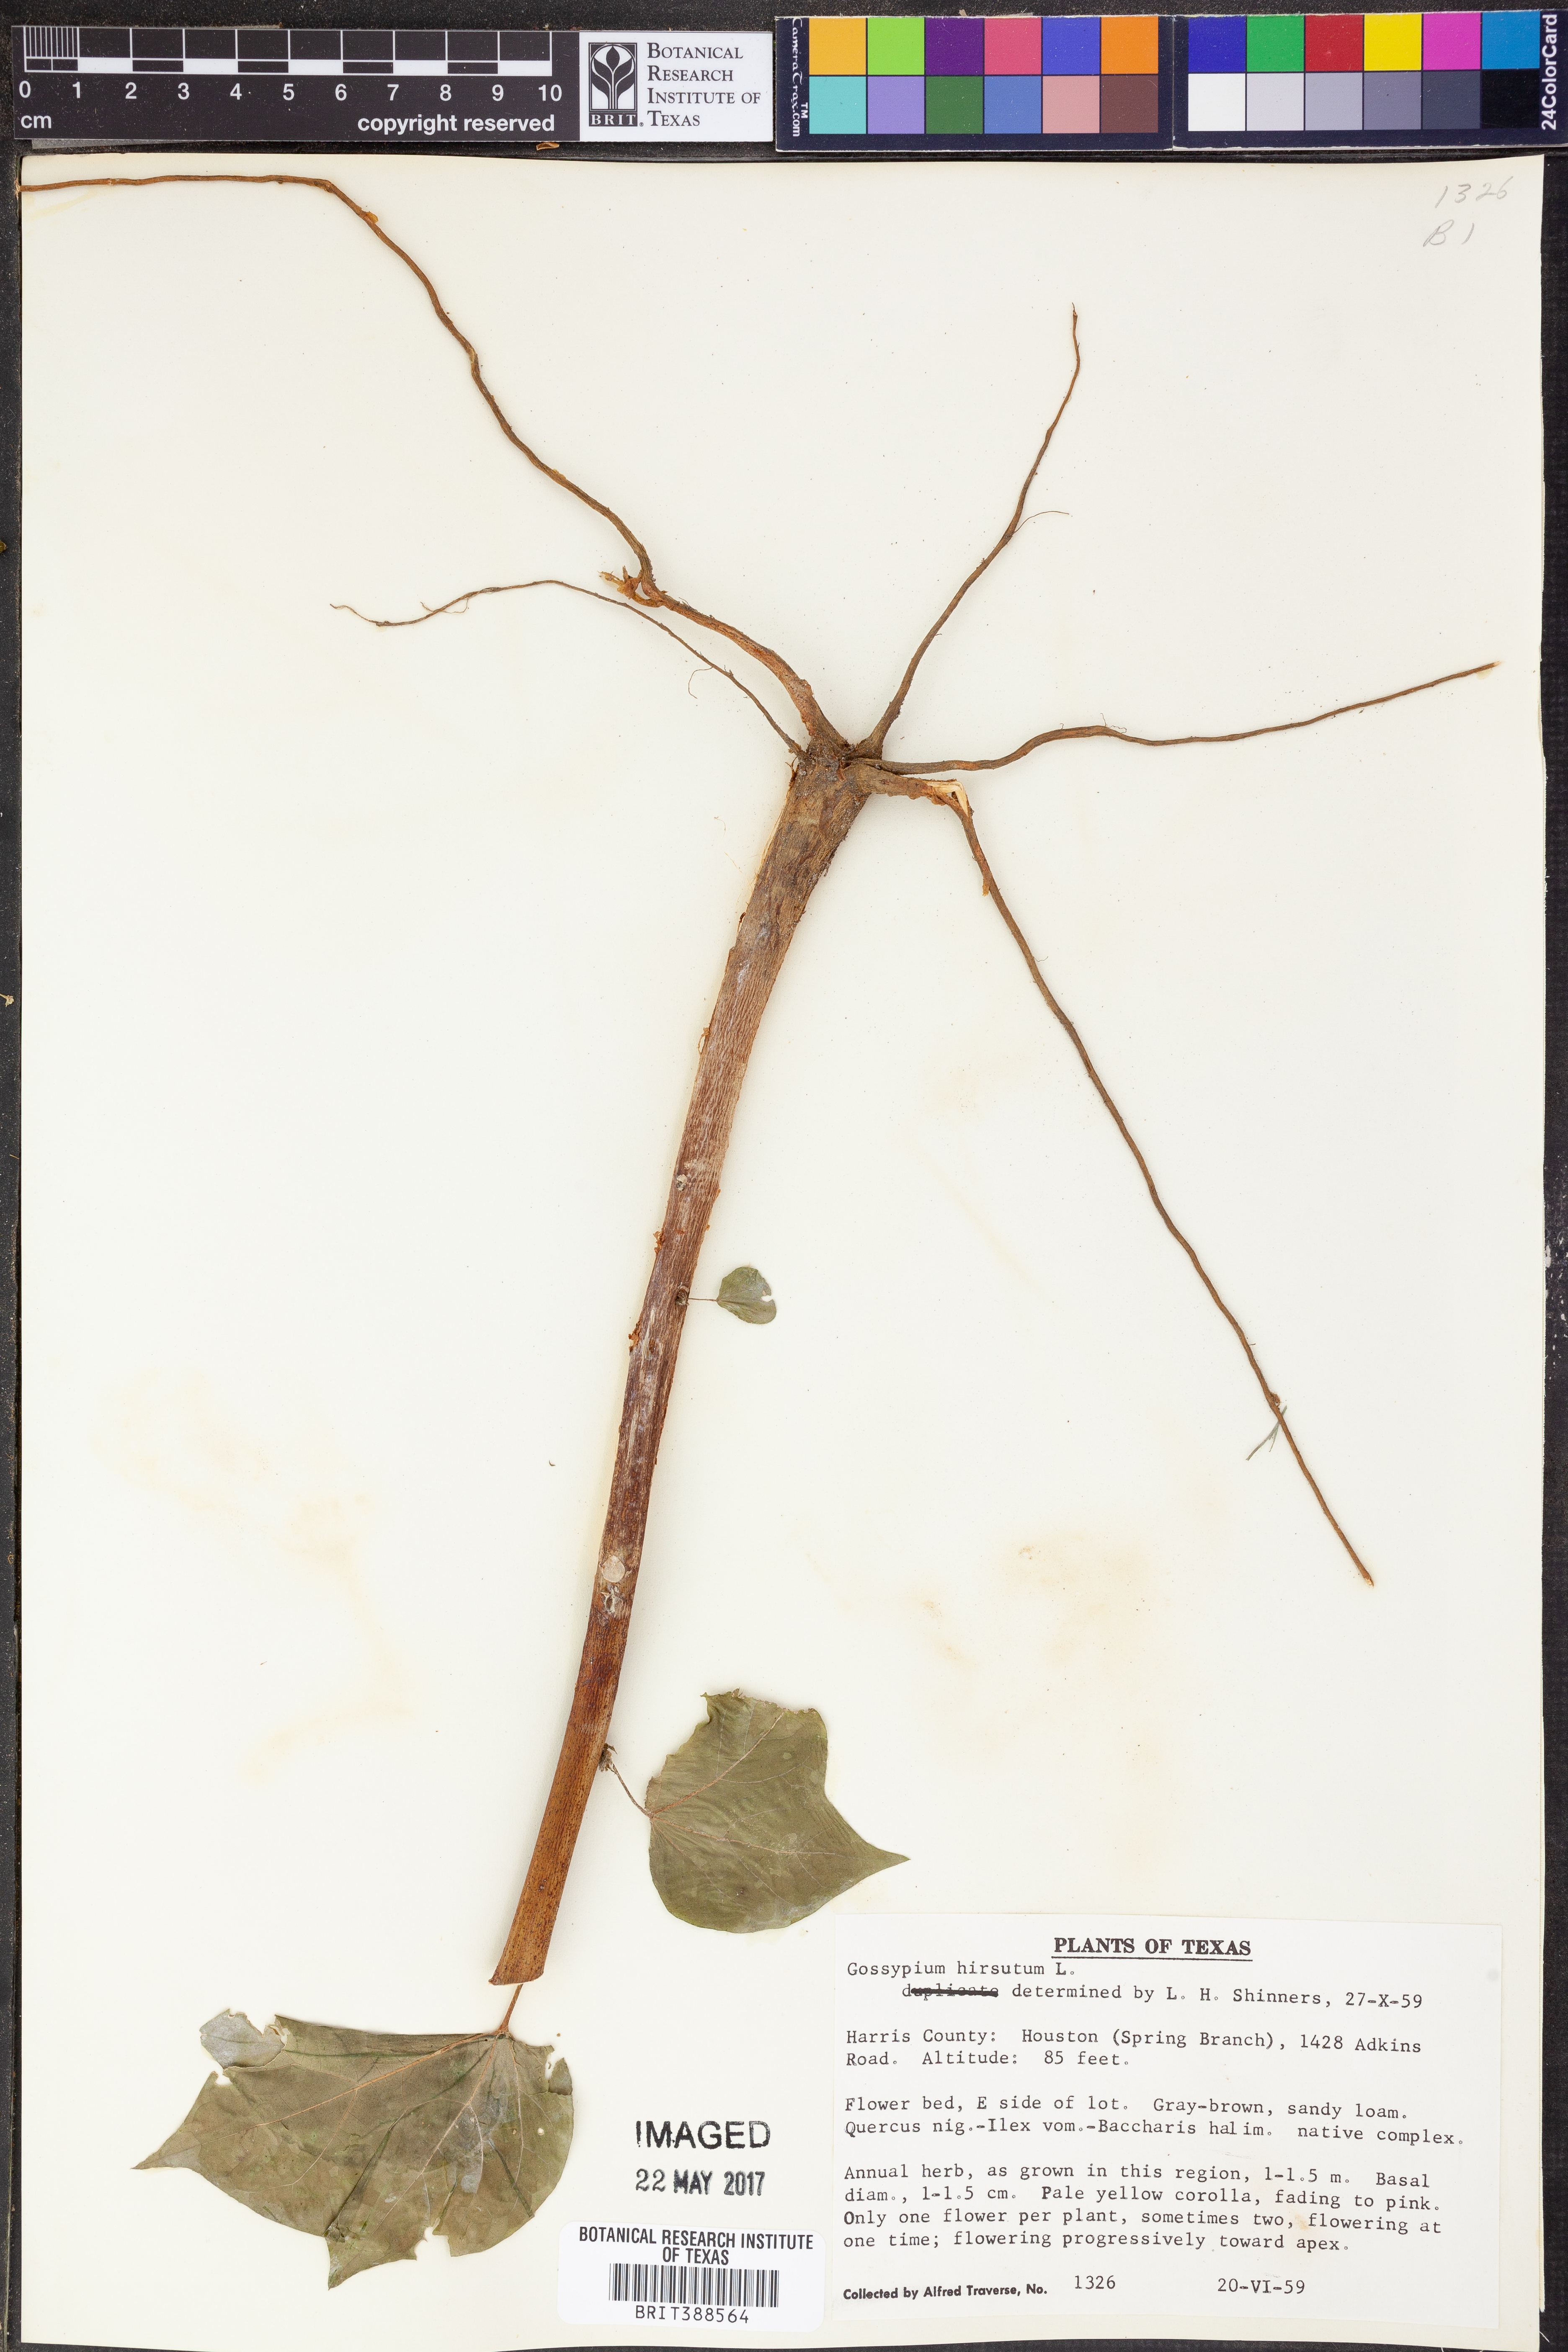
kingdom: Plantae
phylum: Tracheophyta
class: Magnoliopsida
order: Malvales
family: Malvaceae
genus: Gossypium
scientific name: Gossypium hirsutum
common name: Cotton
